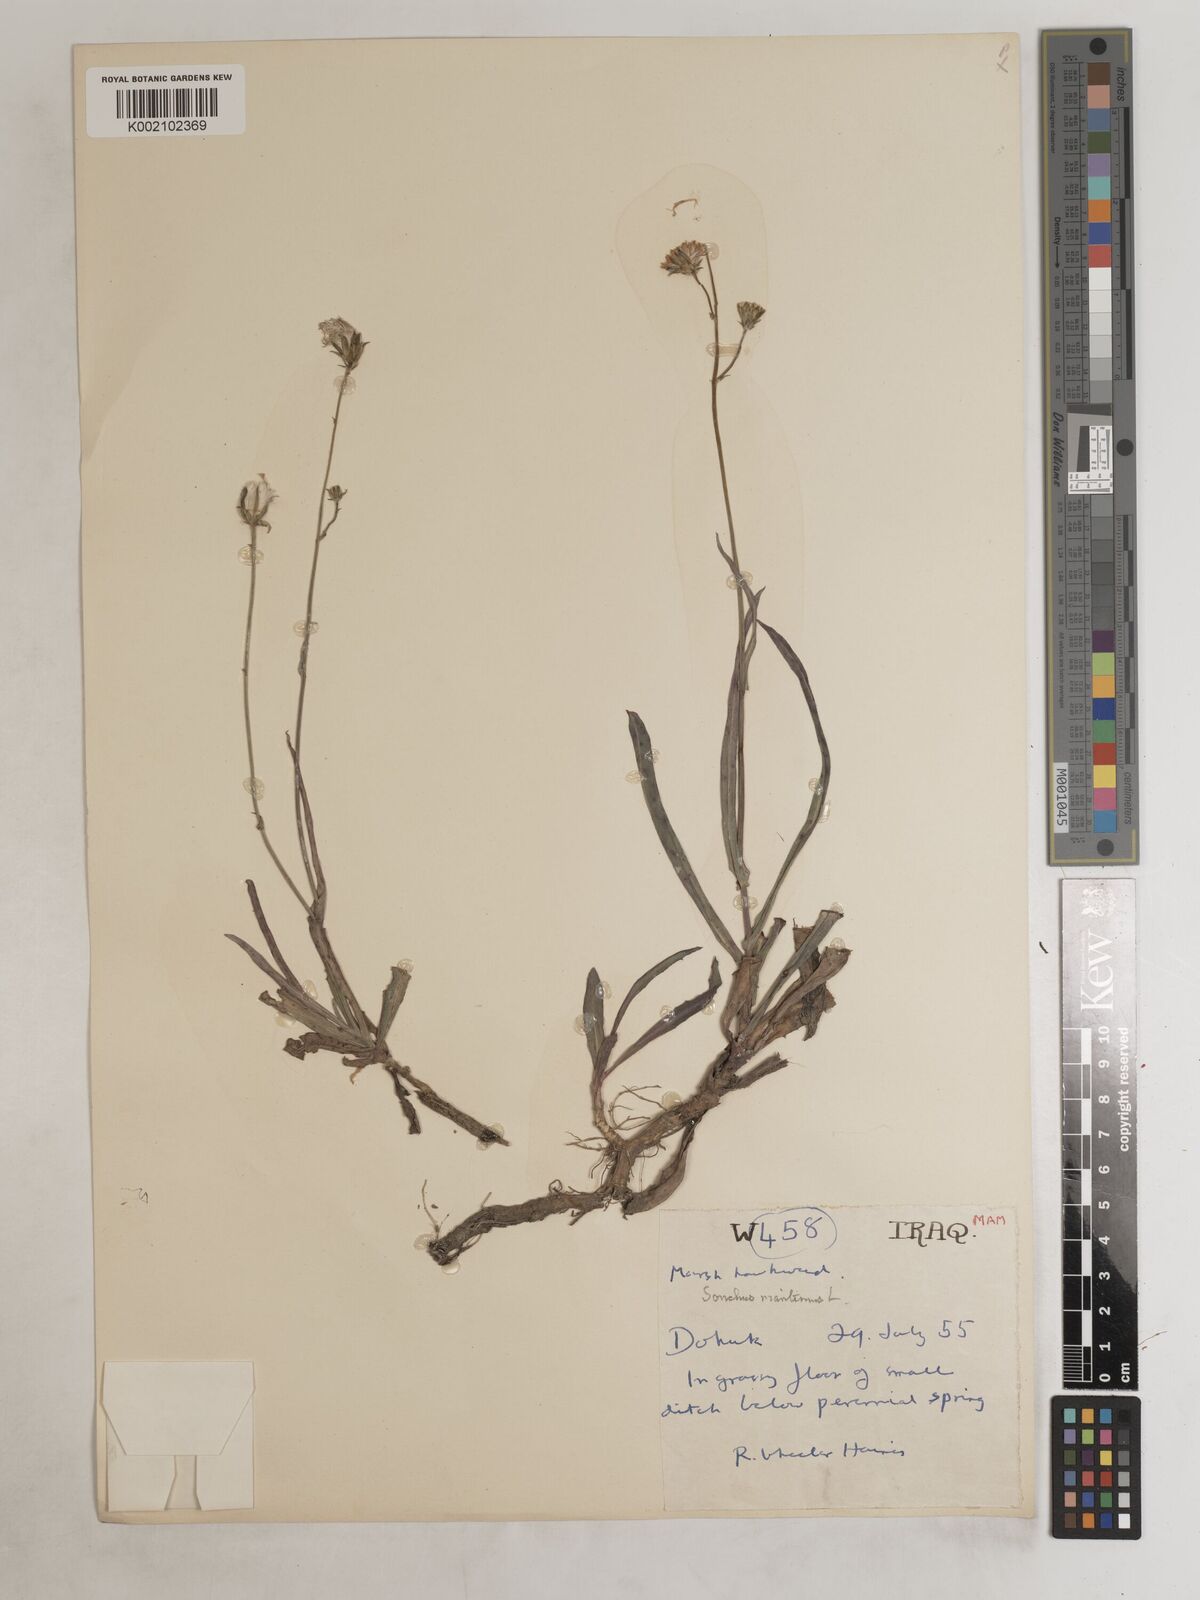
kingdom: Plantae
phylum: Tracheophyta
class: Magnoliopsida
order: Asterales
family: Asteraceae
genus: Sonchus
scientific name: Sonchus maritimus
